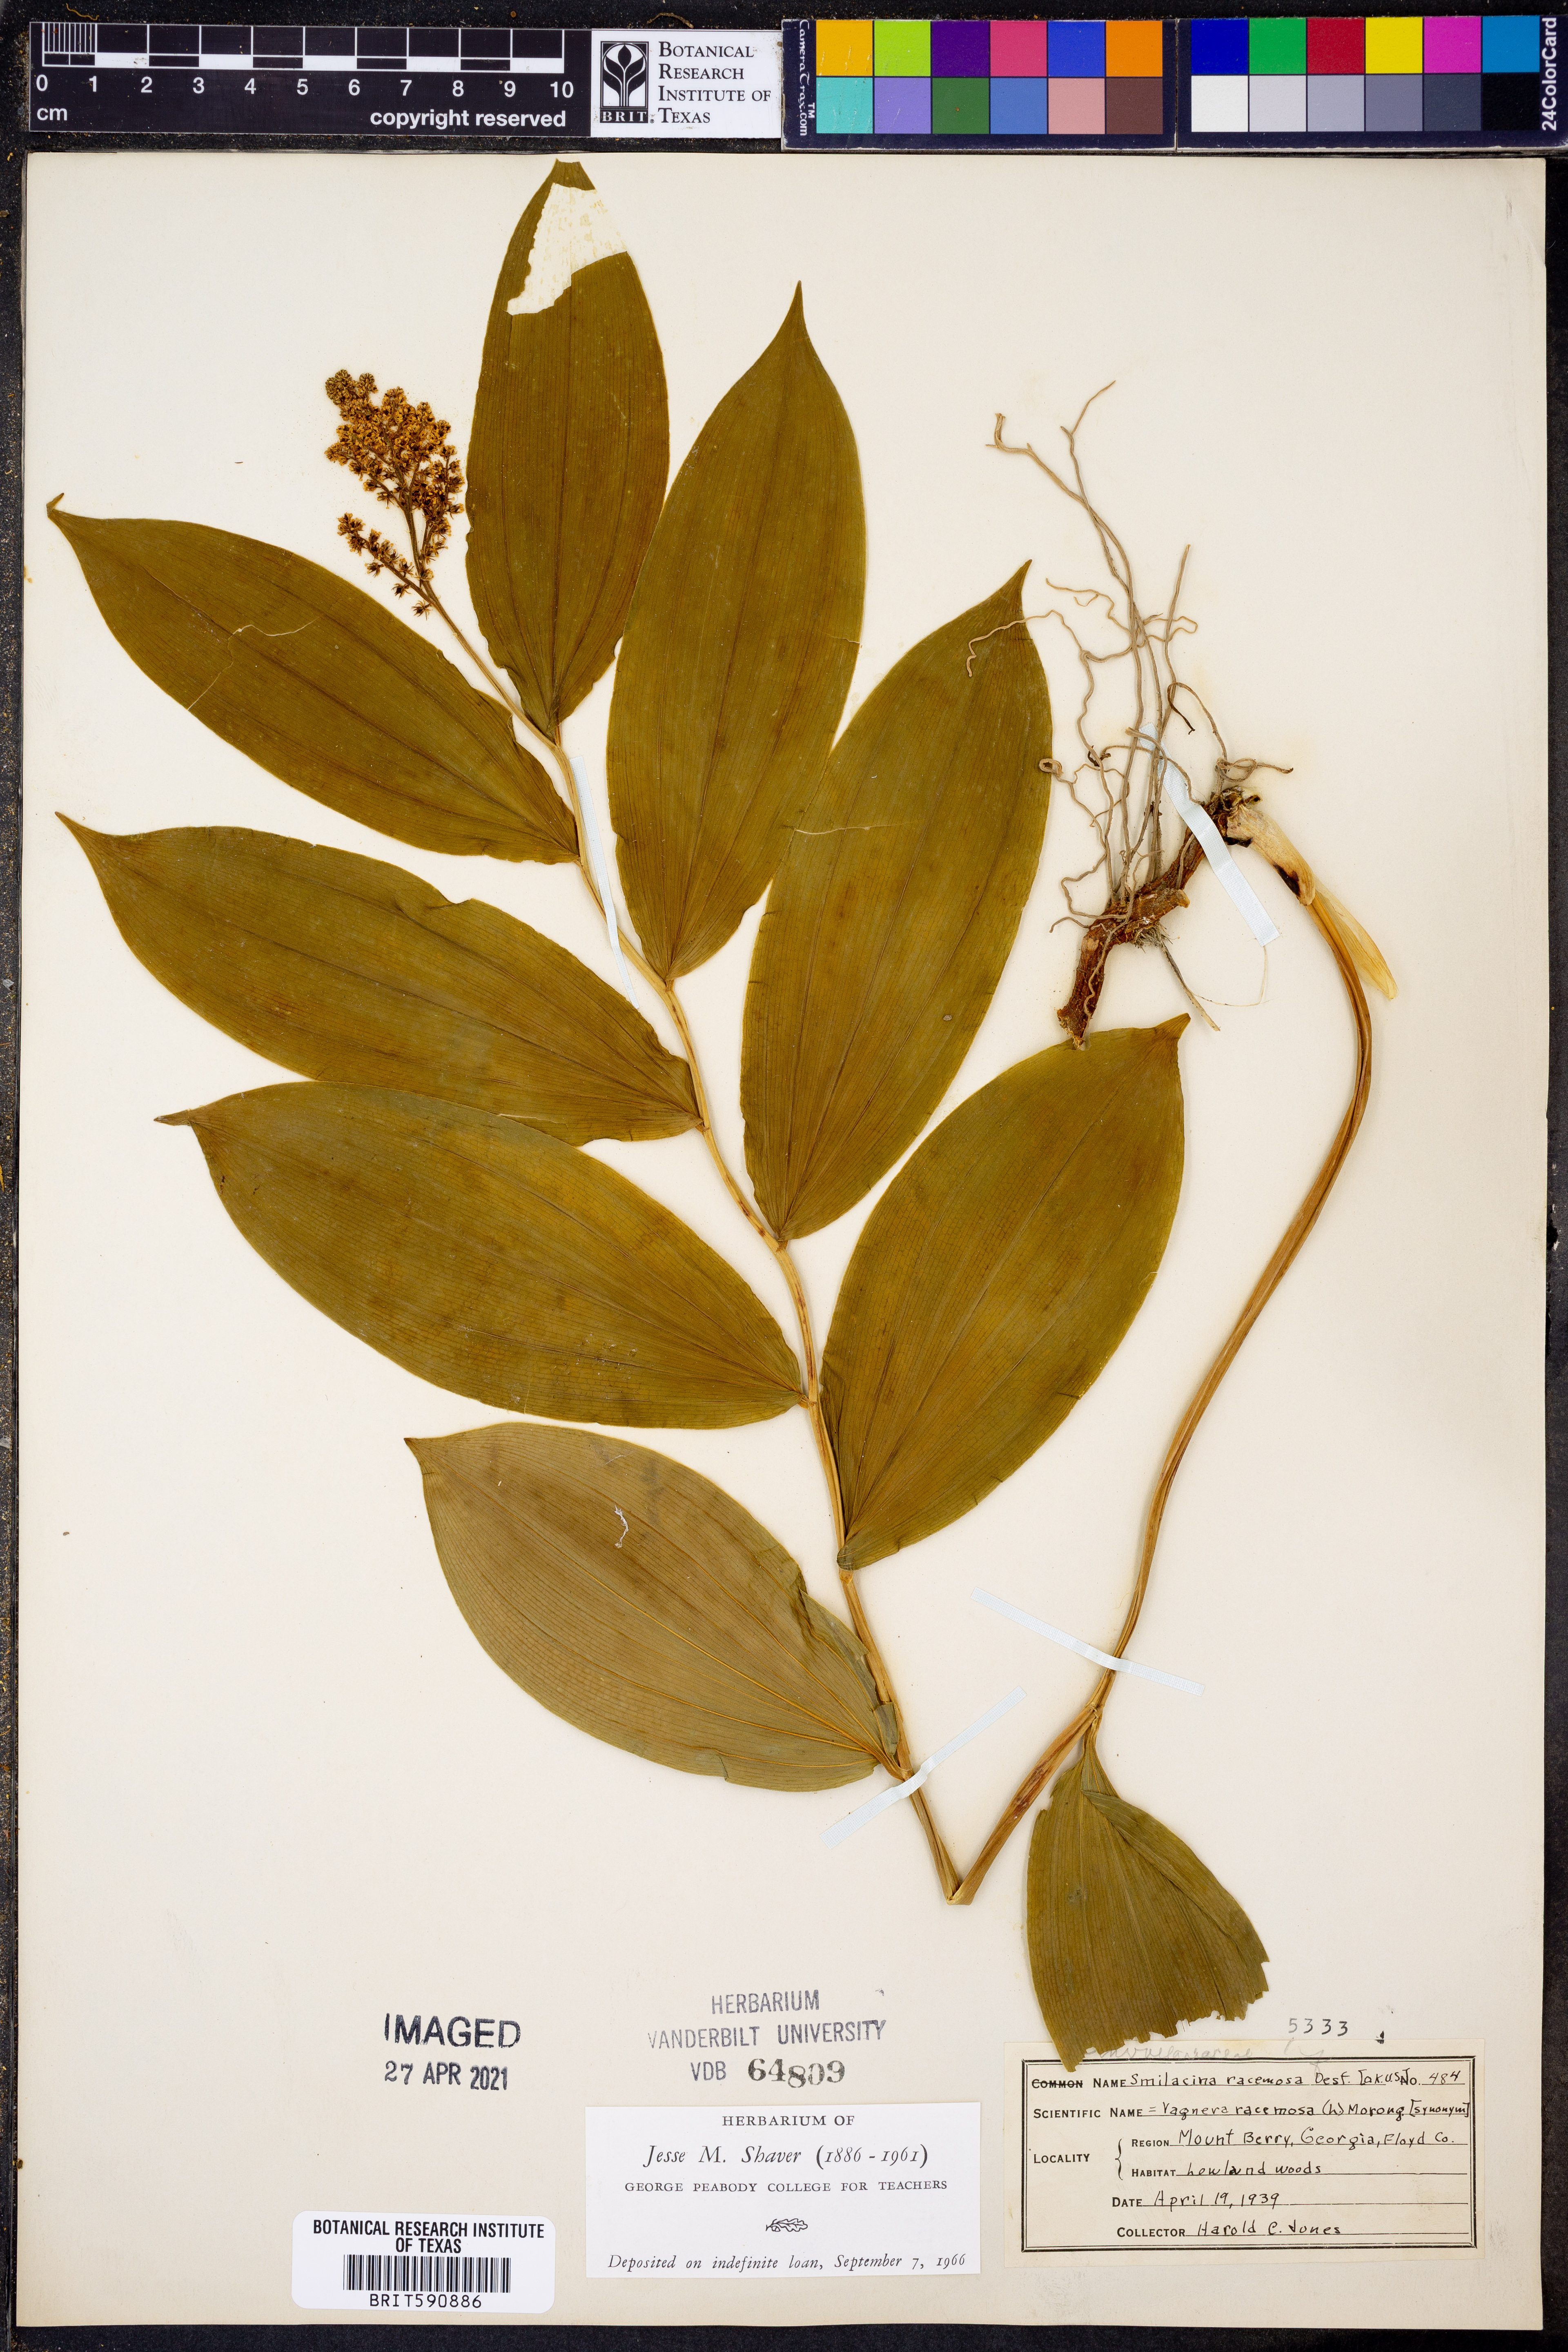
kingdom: Plantae
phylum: Tracheophyta
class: Liliopsida
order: Asparagales
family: Asparagaceae
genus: Maianthemum
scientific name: Maianthemum racemosum
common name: False spikenard
